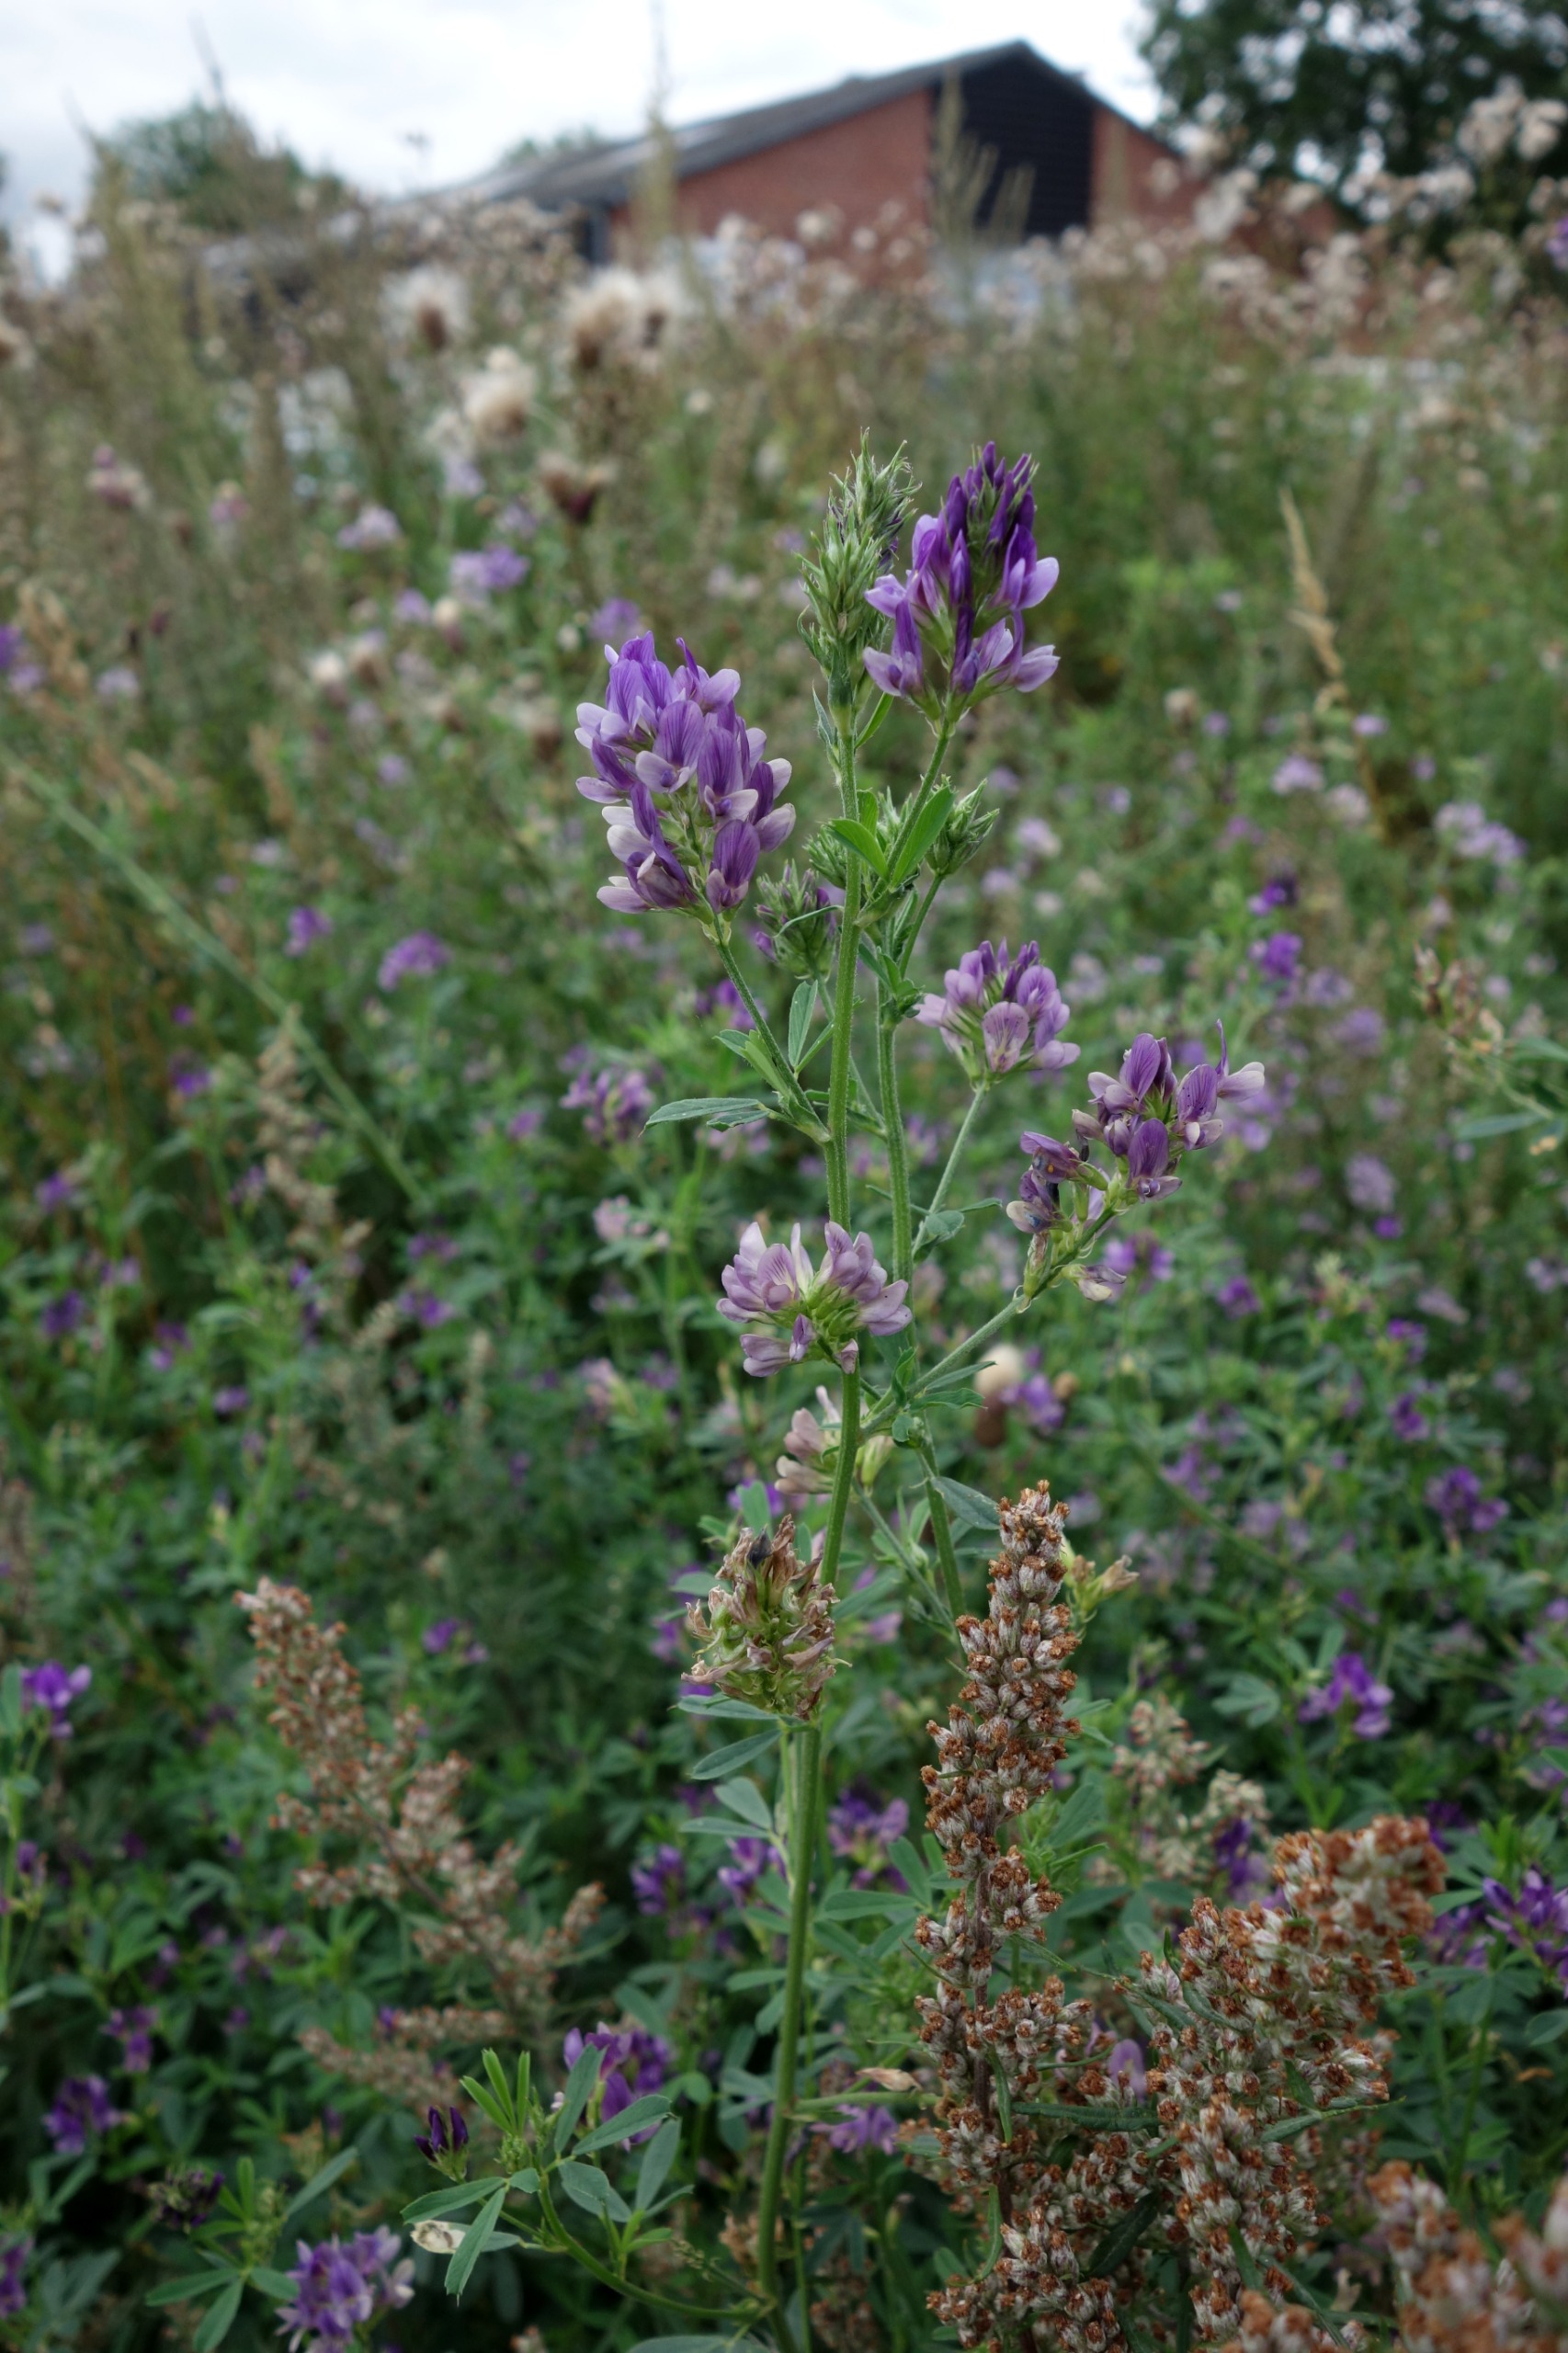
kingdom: Plantae
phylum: Tracheophyta
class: Magnoliopsida
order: Fabales
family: Fabaceae
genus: Medicago
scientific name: Medicago sativa
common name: Lucerne
